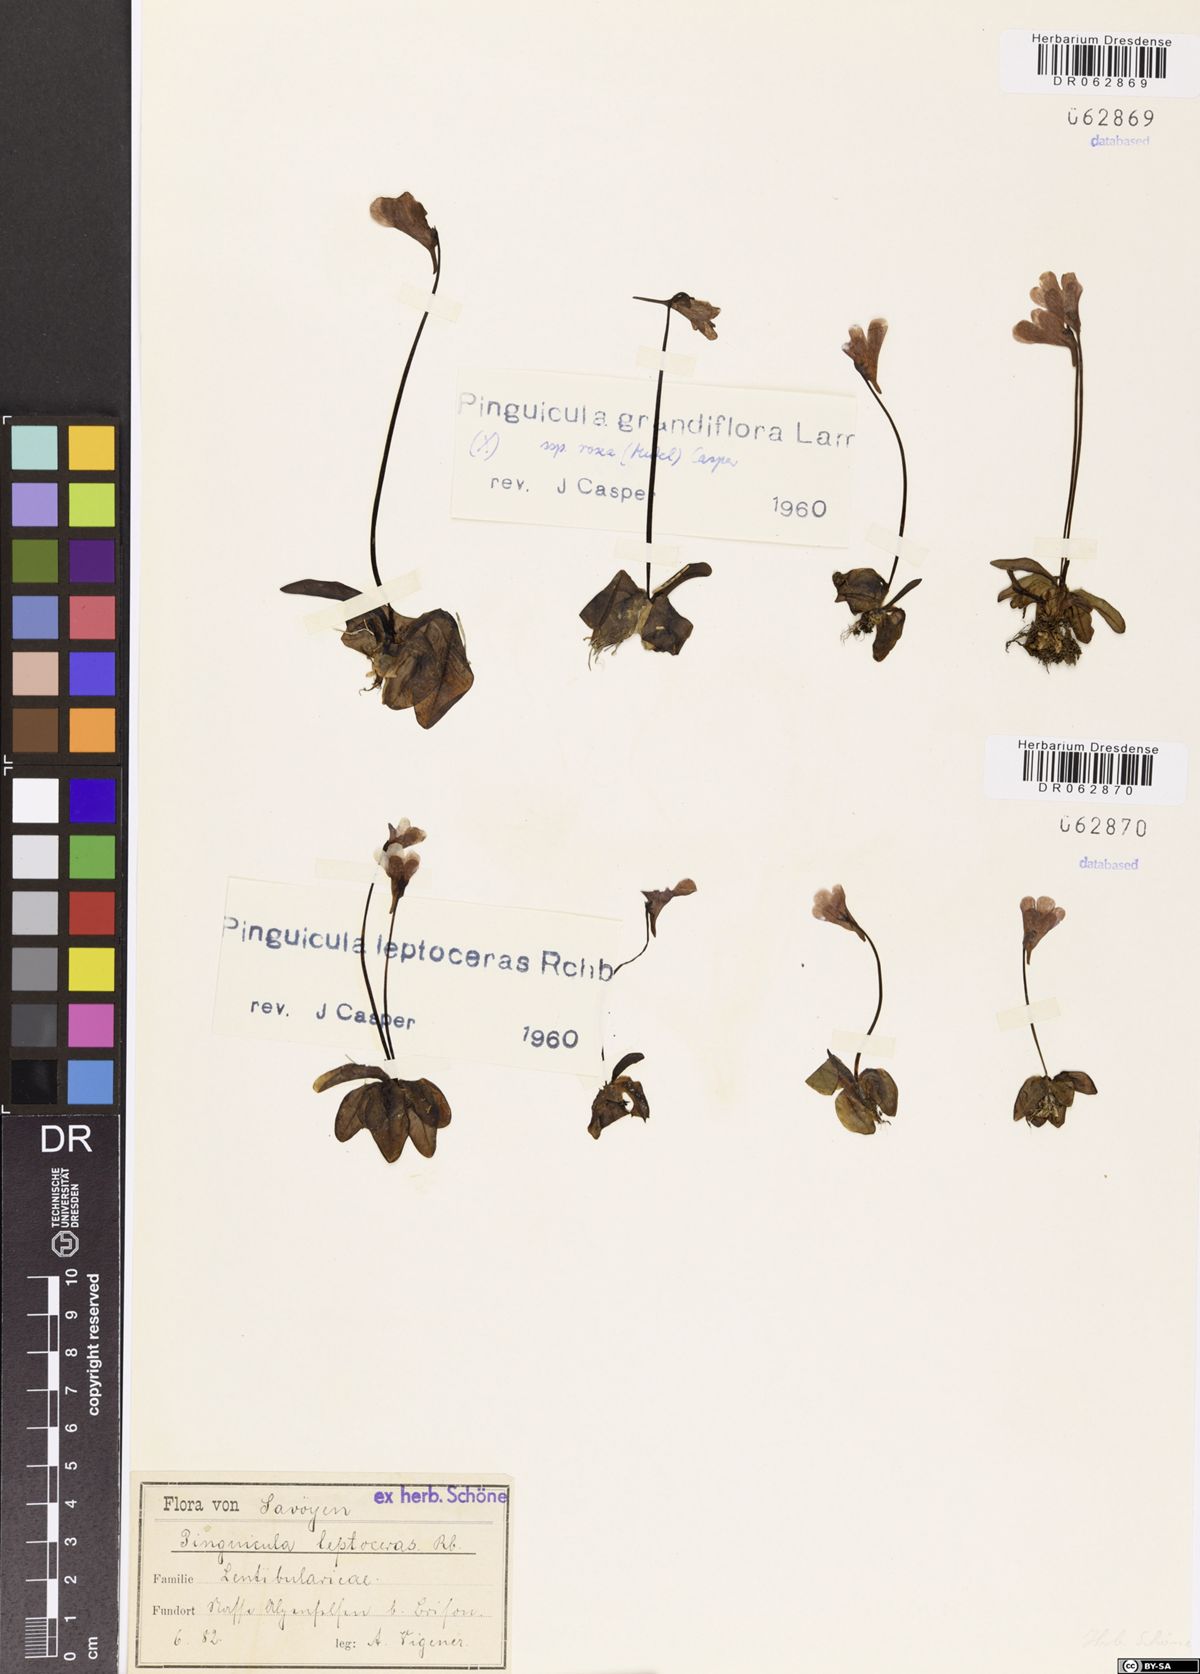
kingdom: Plantae
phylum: Tracheophyta
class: Magnoliopsida
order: Lamiales
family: Lentibulariaceae
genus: Pinguicula
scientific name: Pinguicula leptoceras
